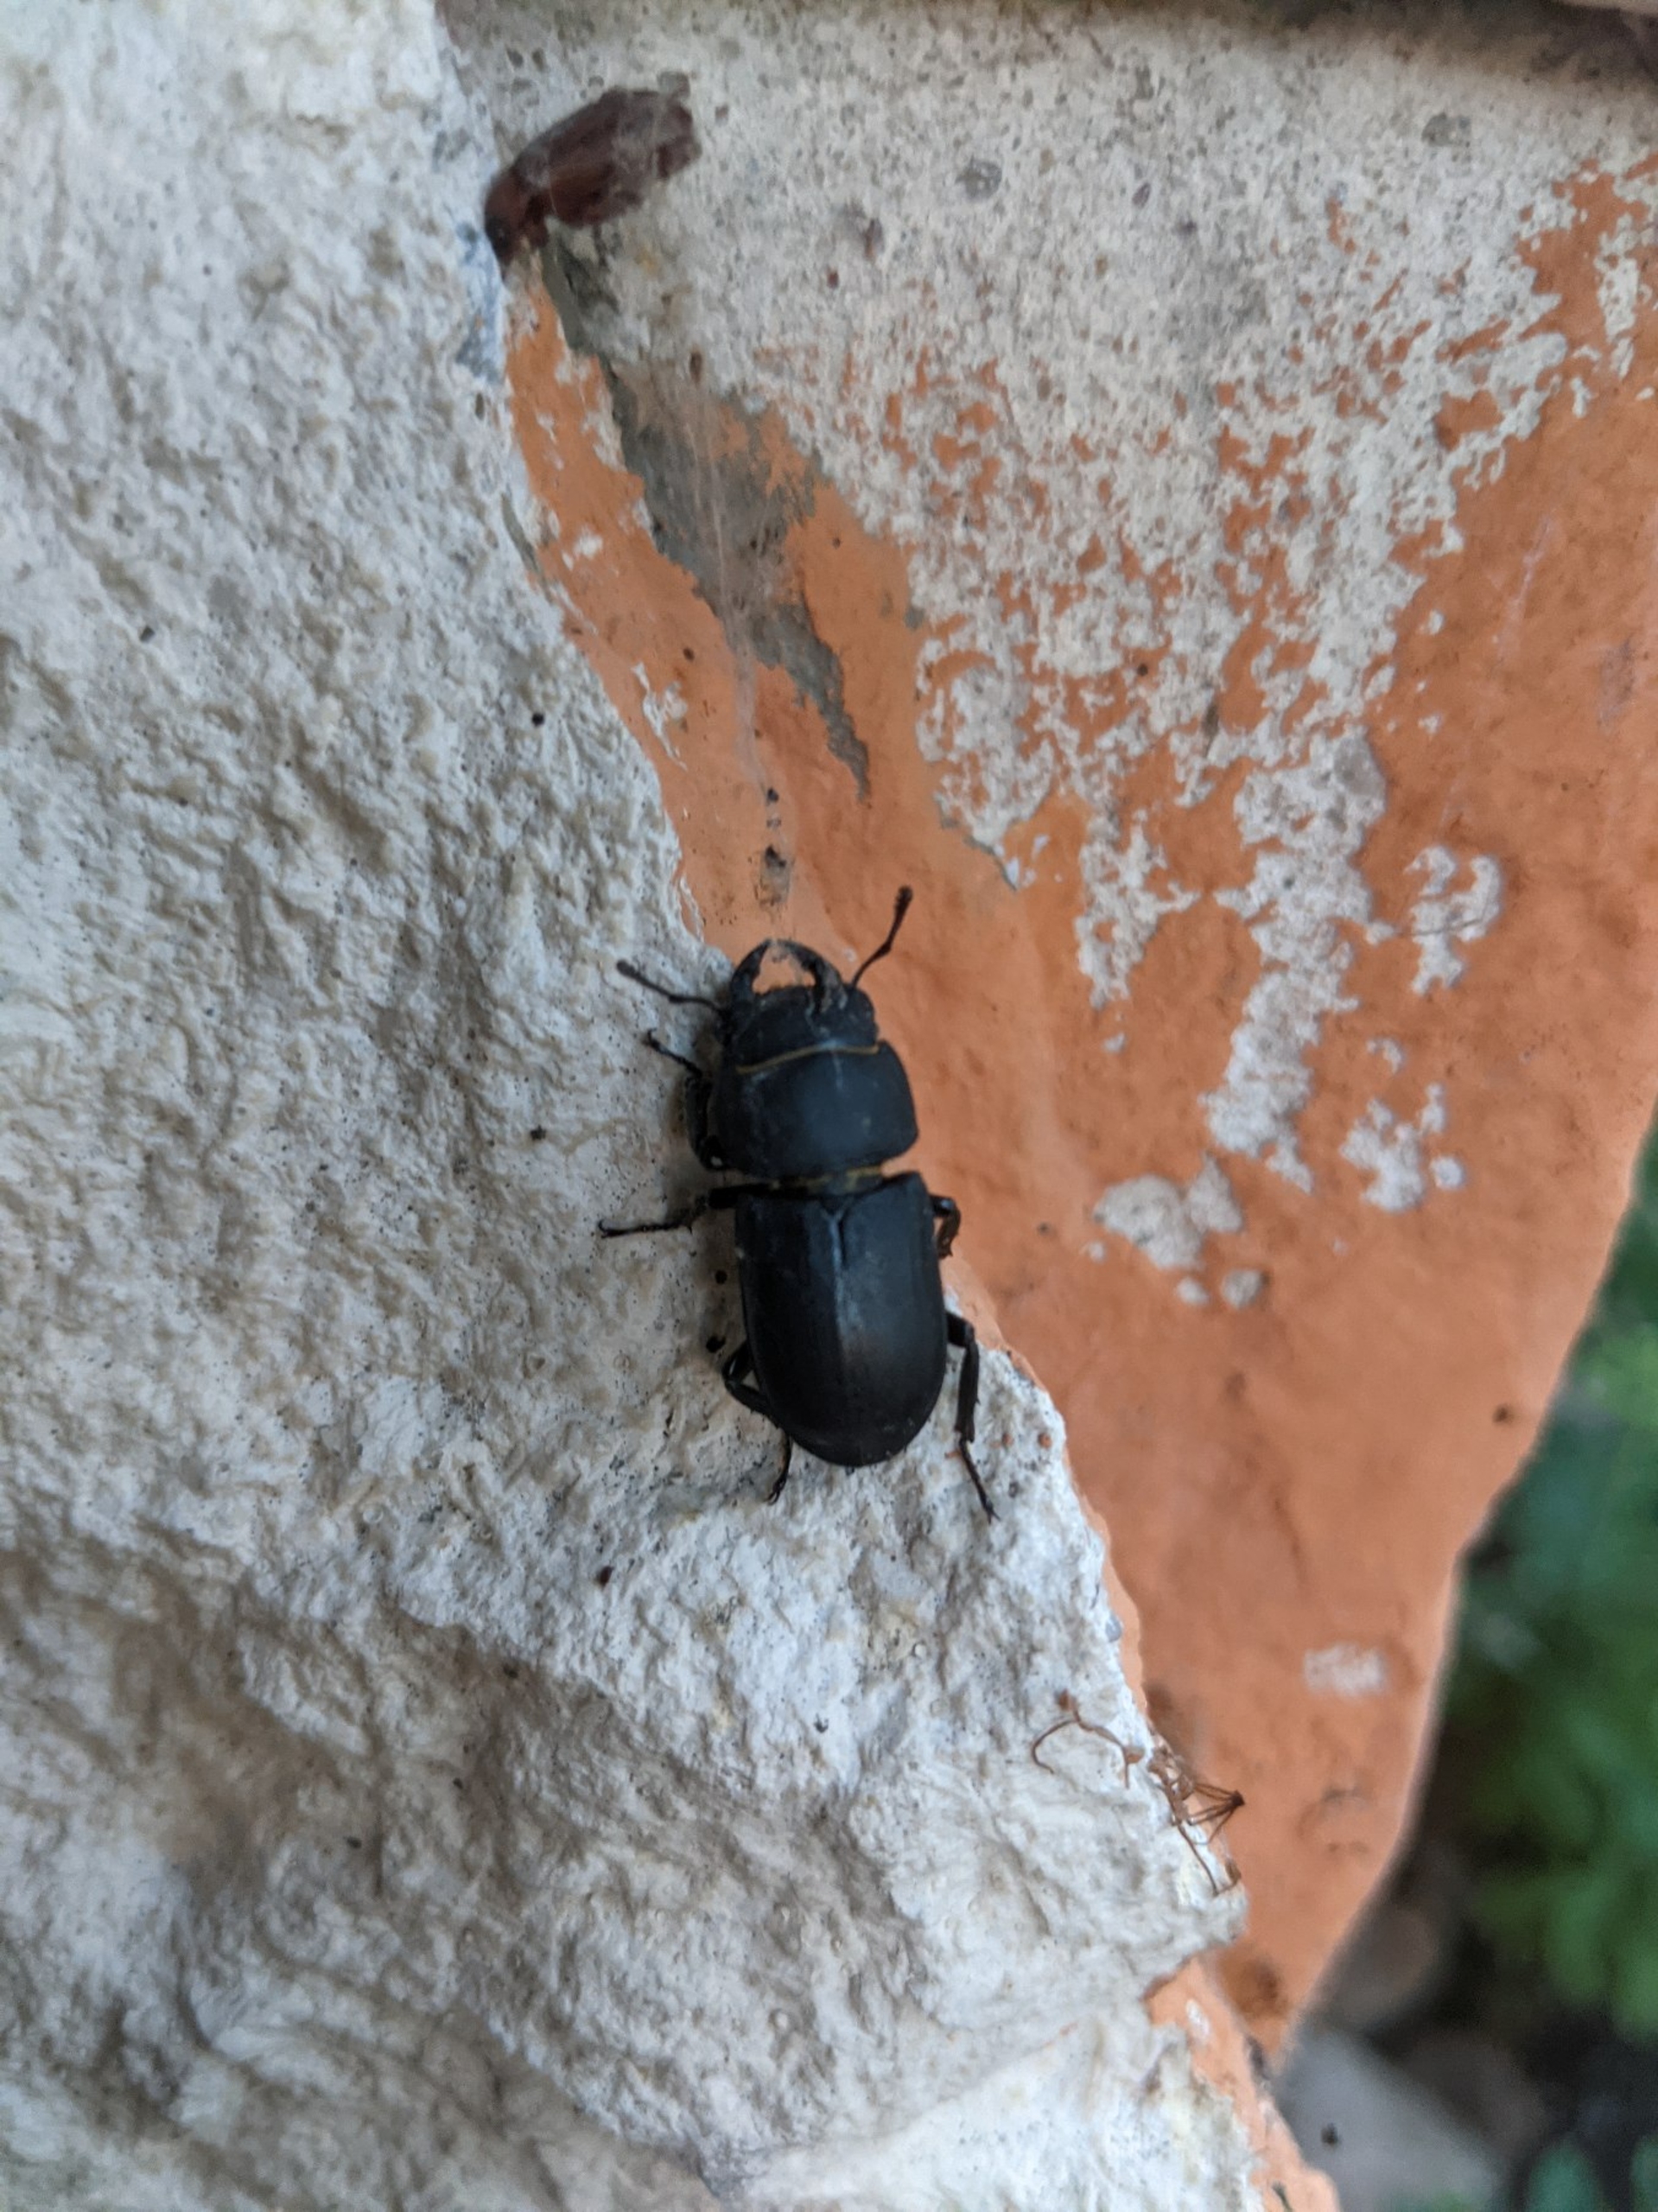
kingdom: Animalia
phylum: Arthropoda
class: Insecta
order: Coleoptera
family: Lucanidae
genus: Dorcus
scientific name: Dorcus parallelipipedus
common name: Bøghjort
